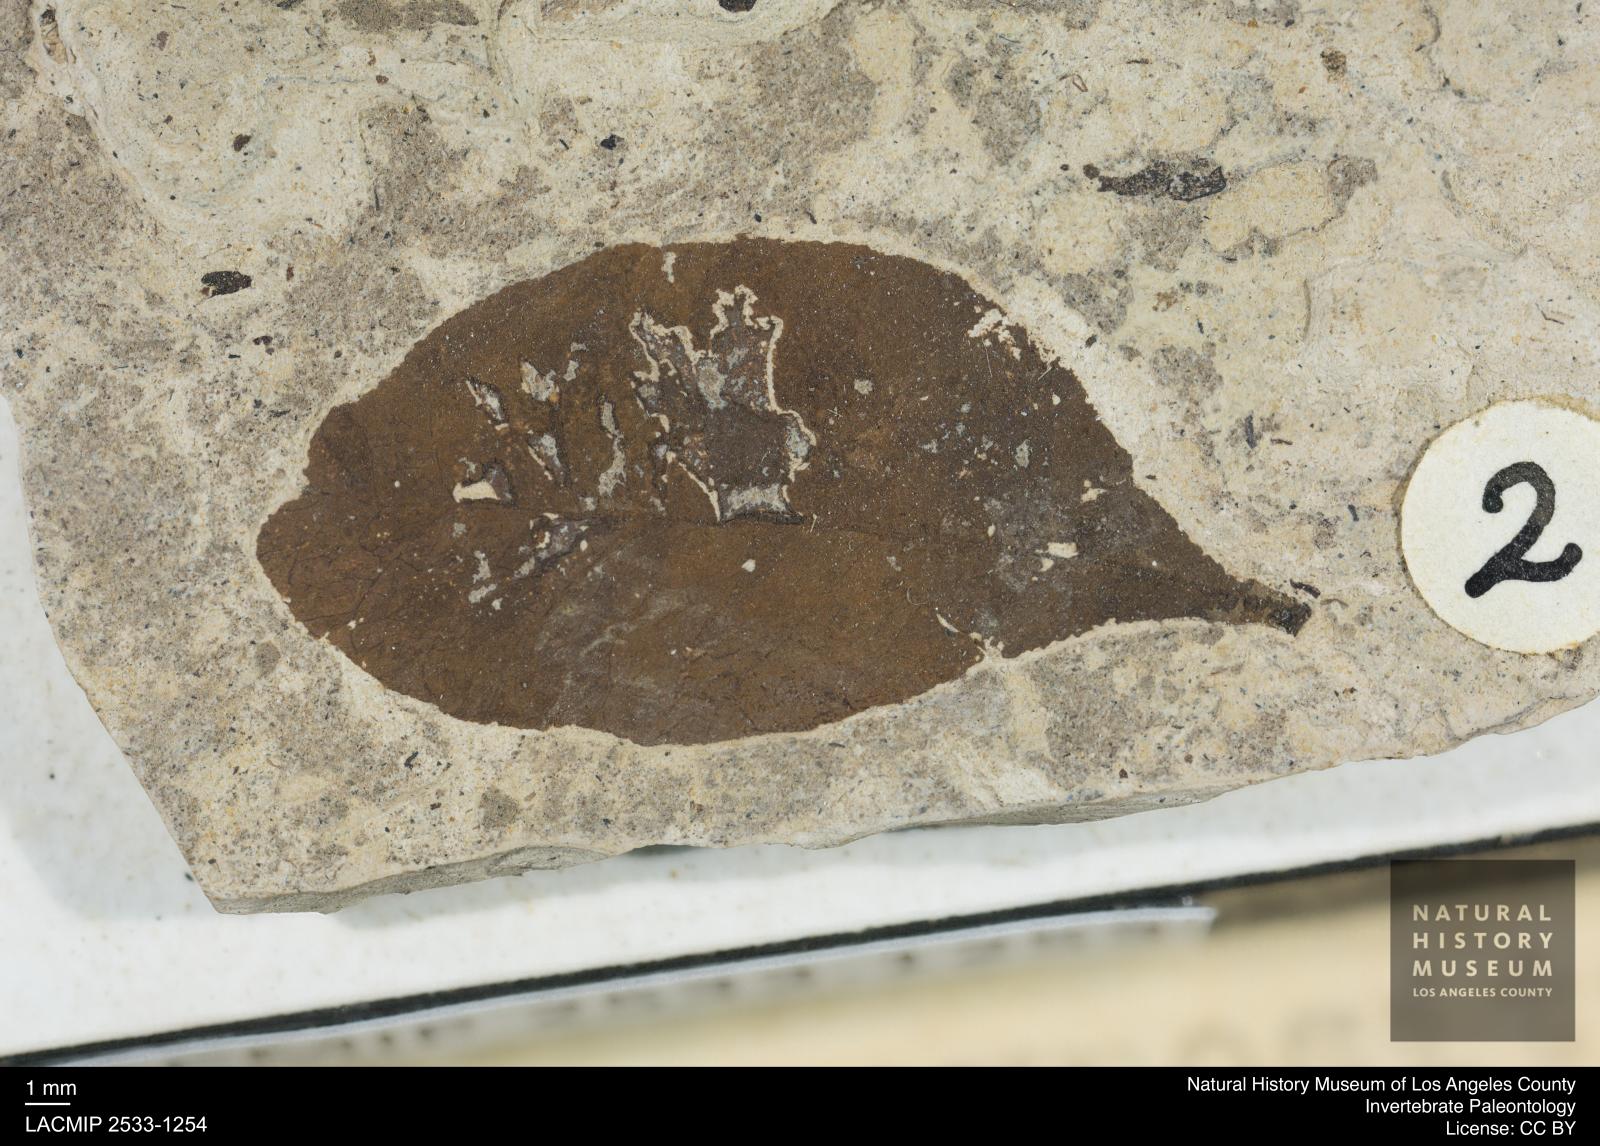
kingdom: Plantae
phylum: Tracheophyta
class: Magnoliopsida
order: Sapindales
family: Anacardiaceae
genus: Pistacia
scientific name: Pistacia
